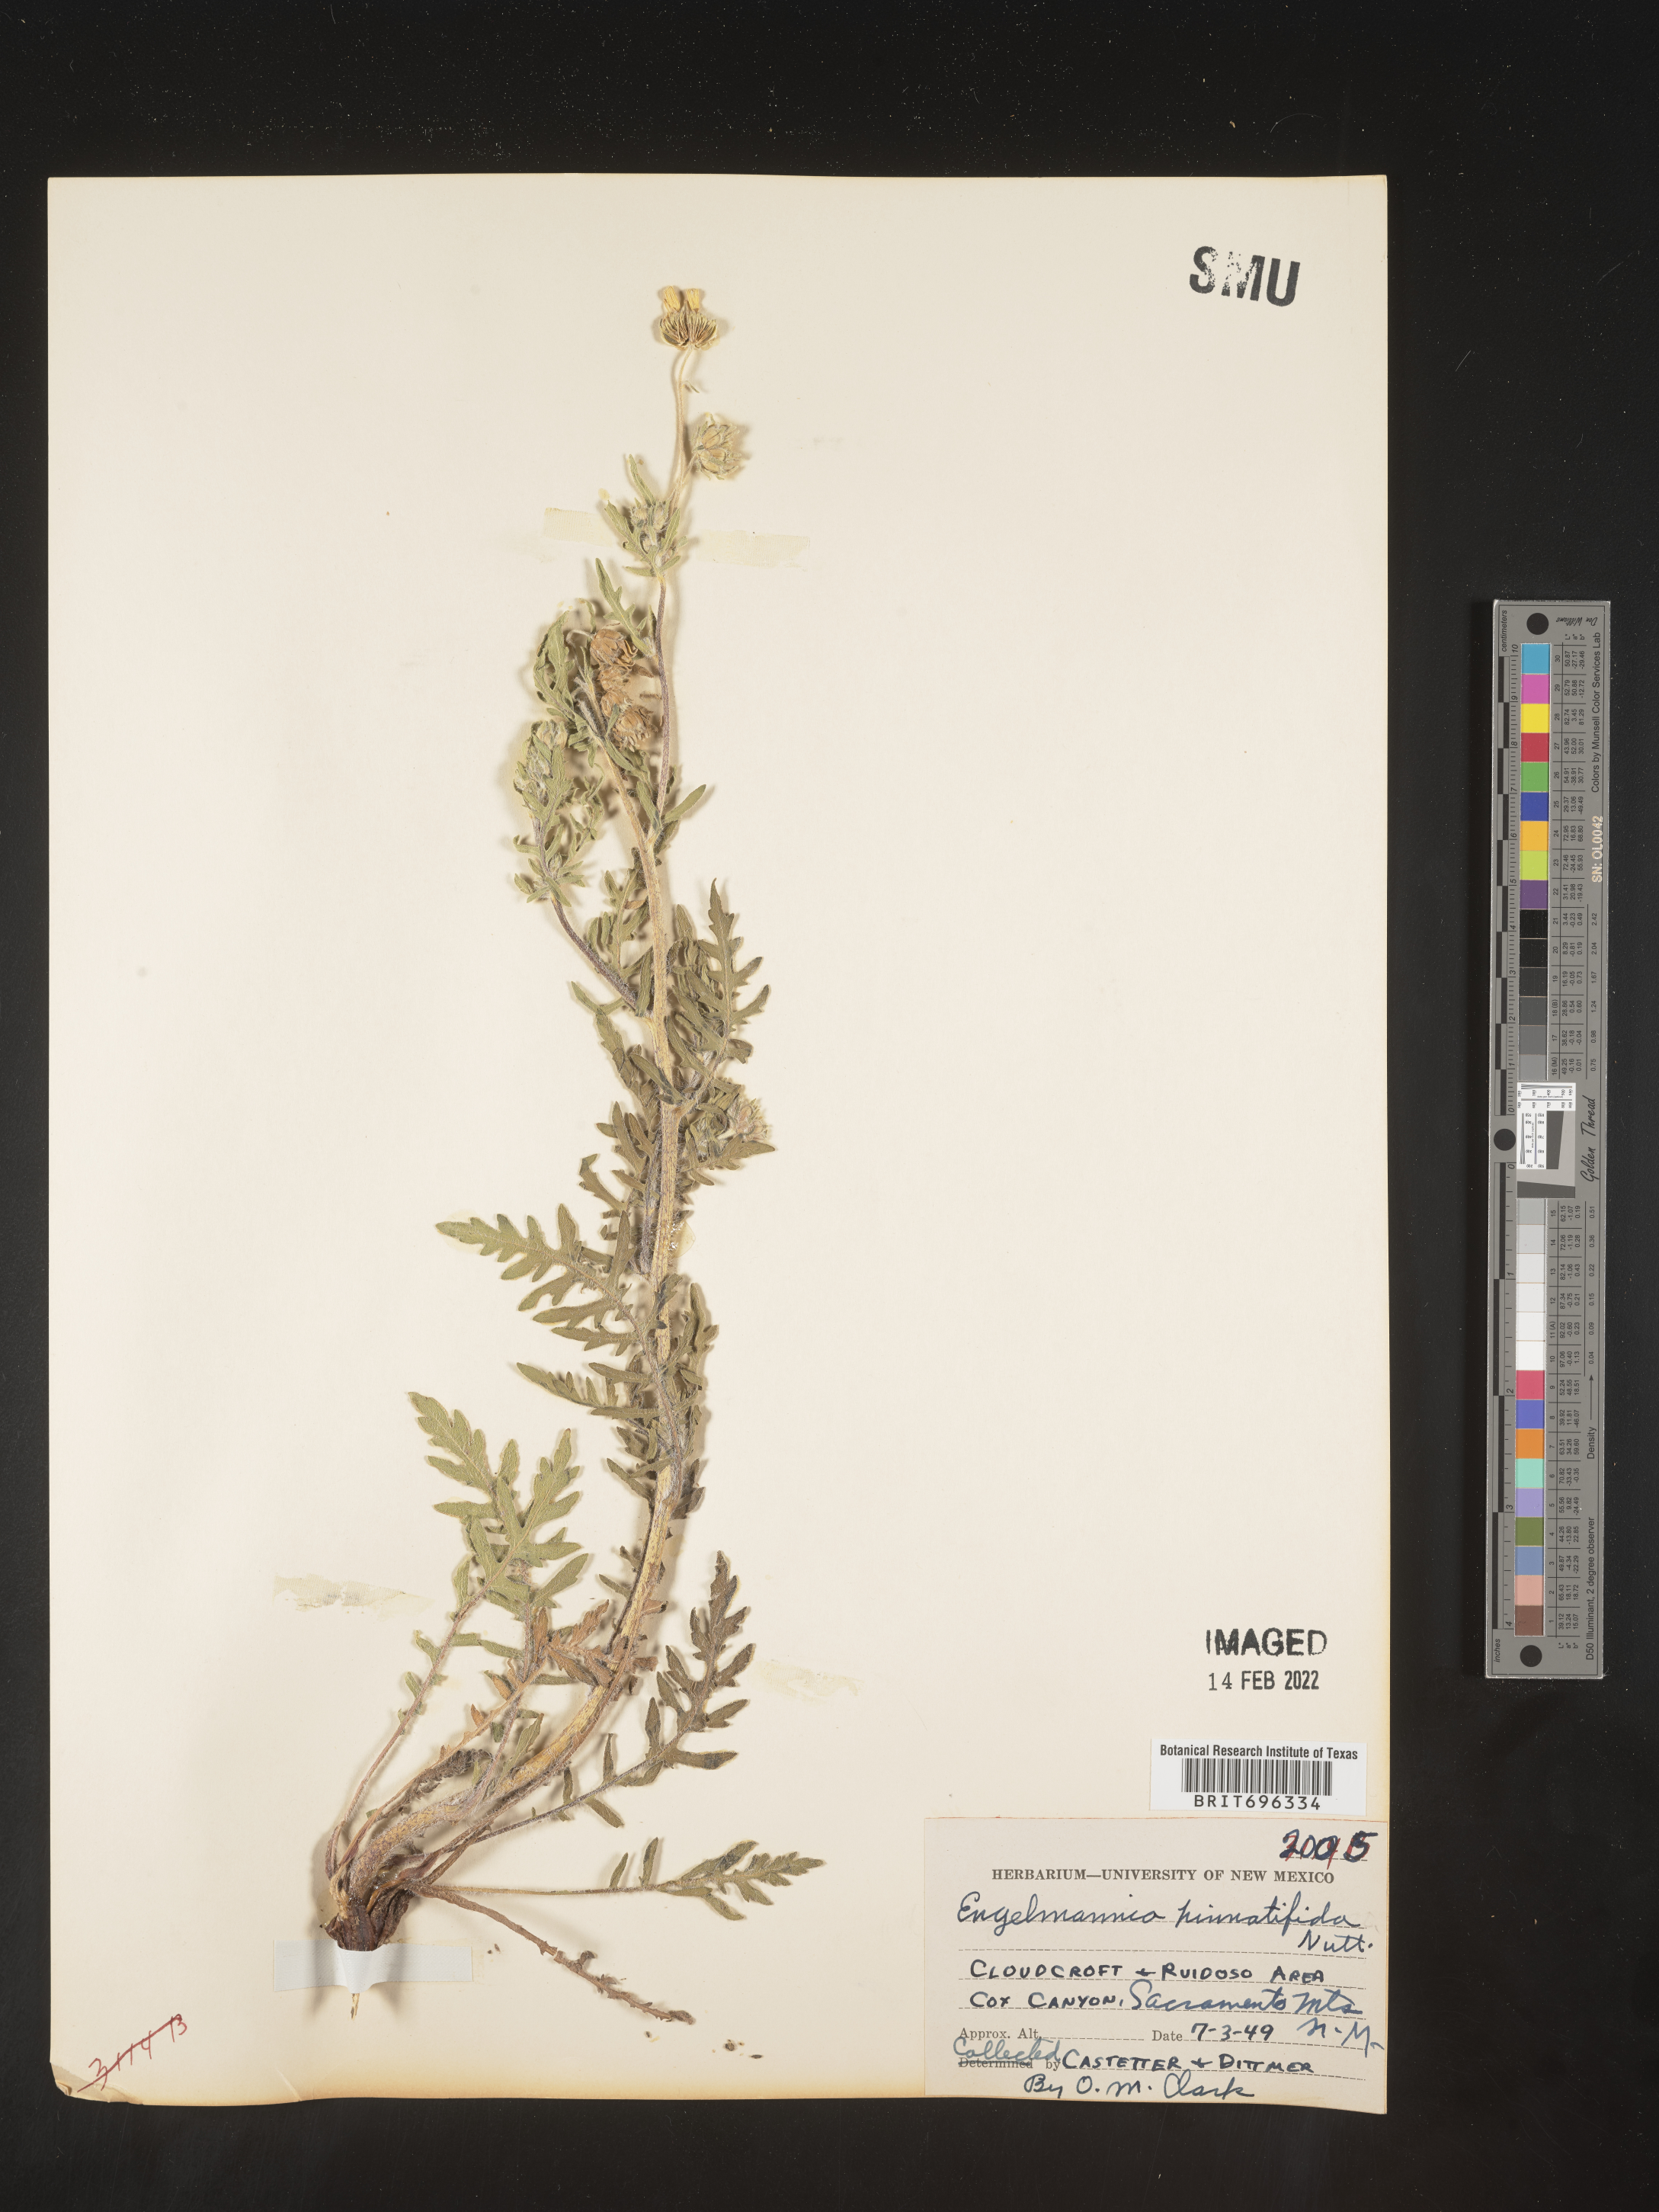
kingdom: Plantae
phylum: Tracheophyta
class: Magnoliopsida
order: Asterales
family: Asteraceae
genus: Engelmannia
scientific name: Engelmannia peristenia
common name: Engelmann's daisy
